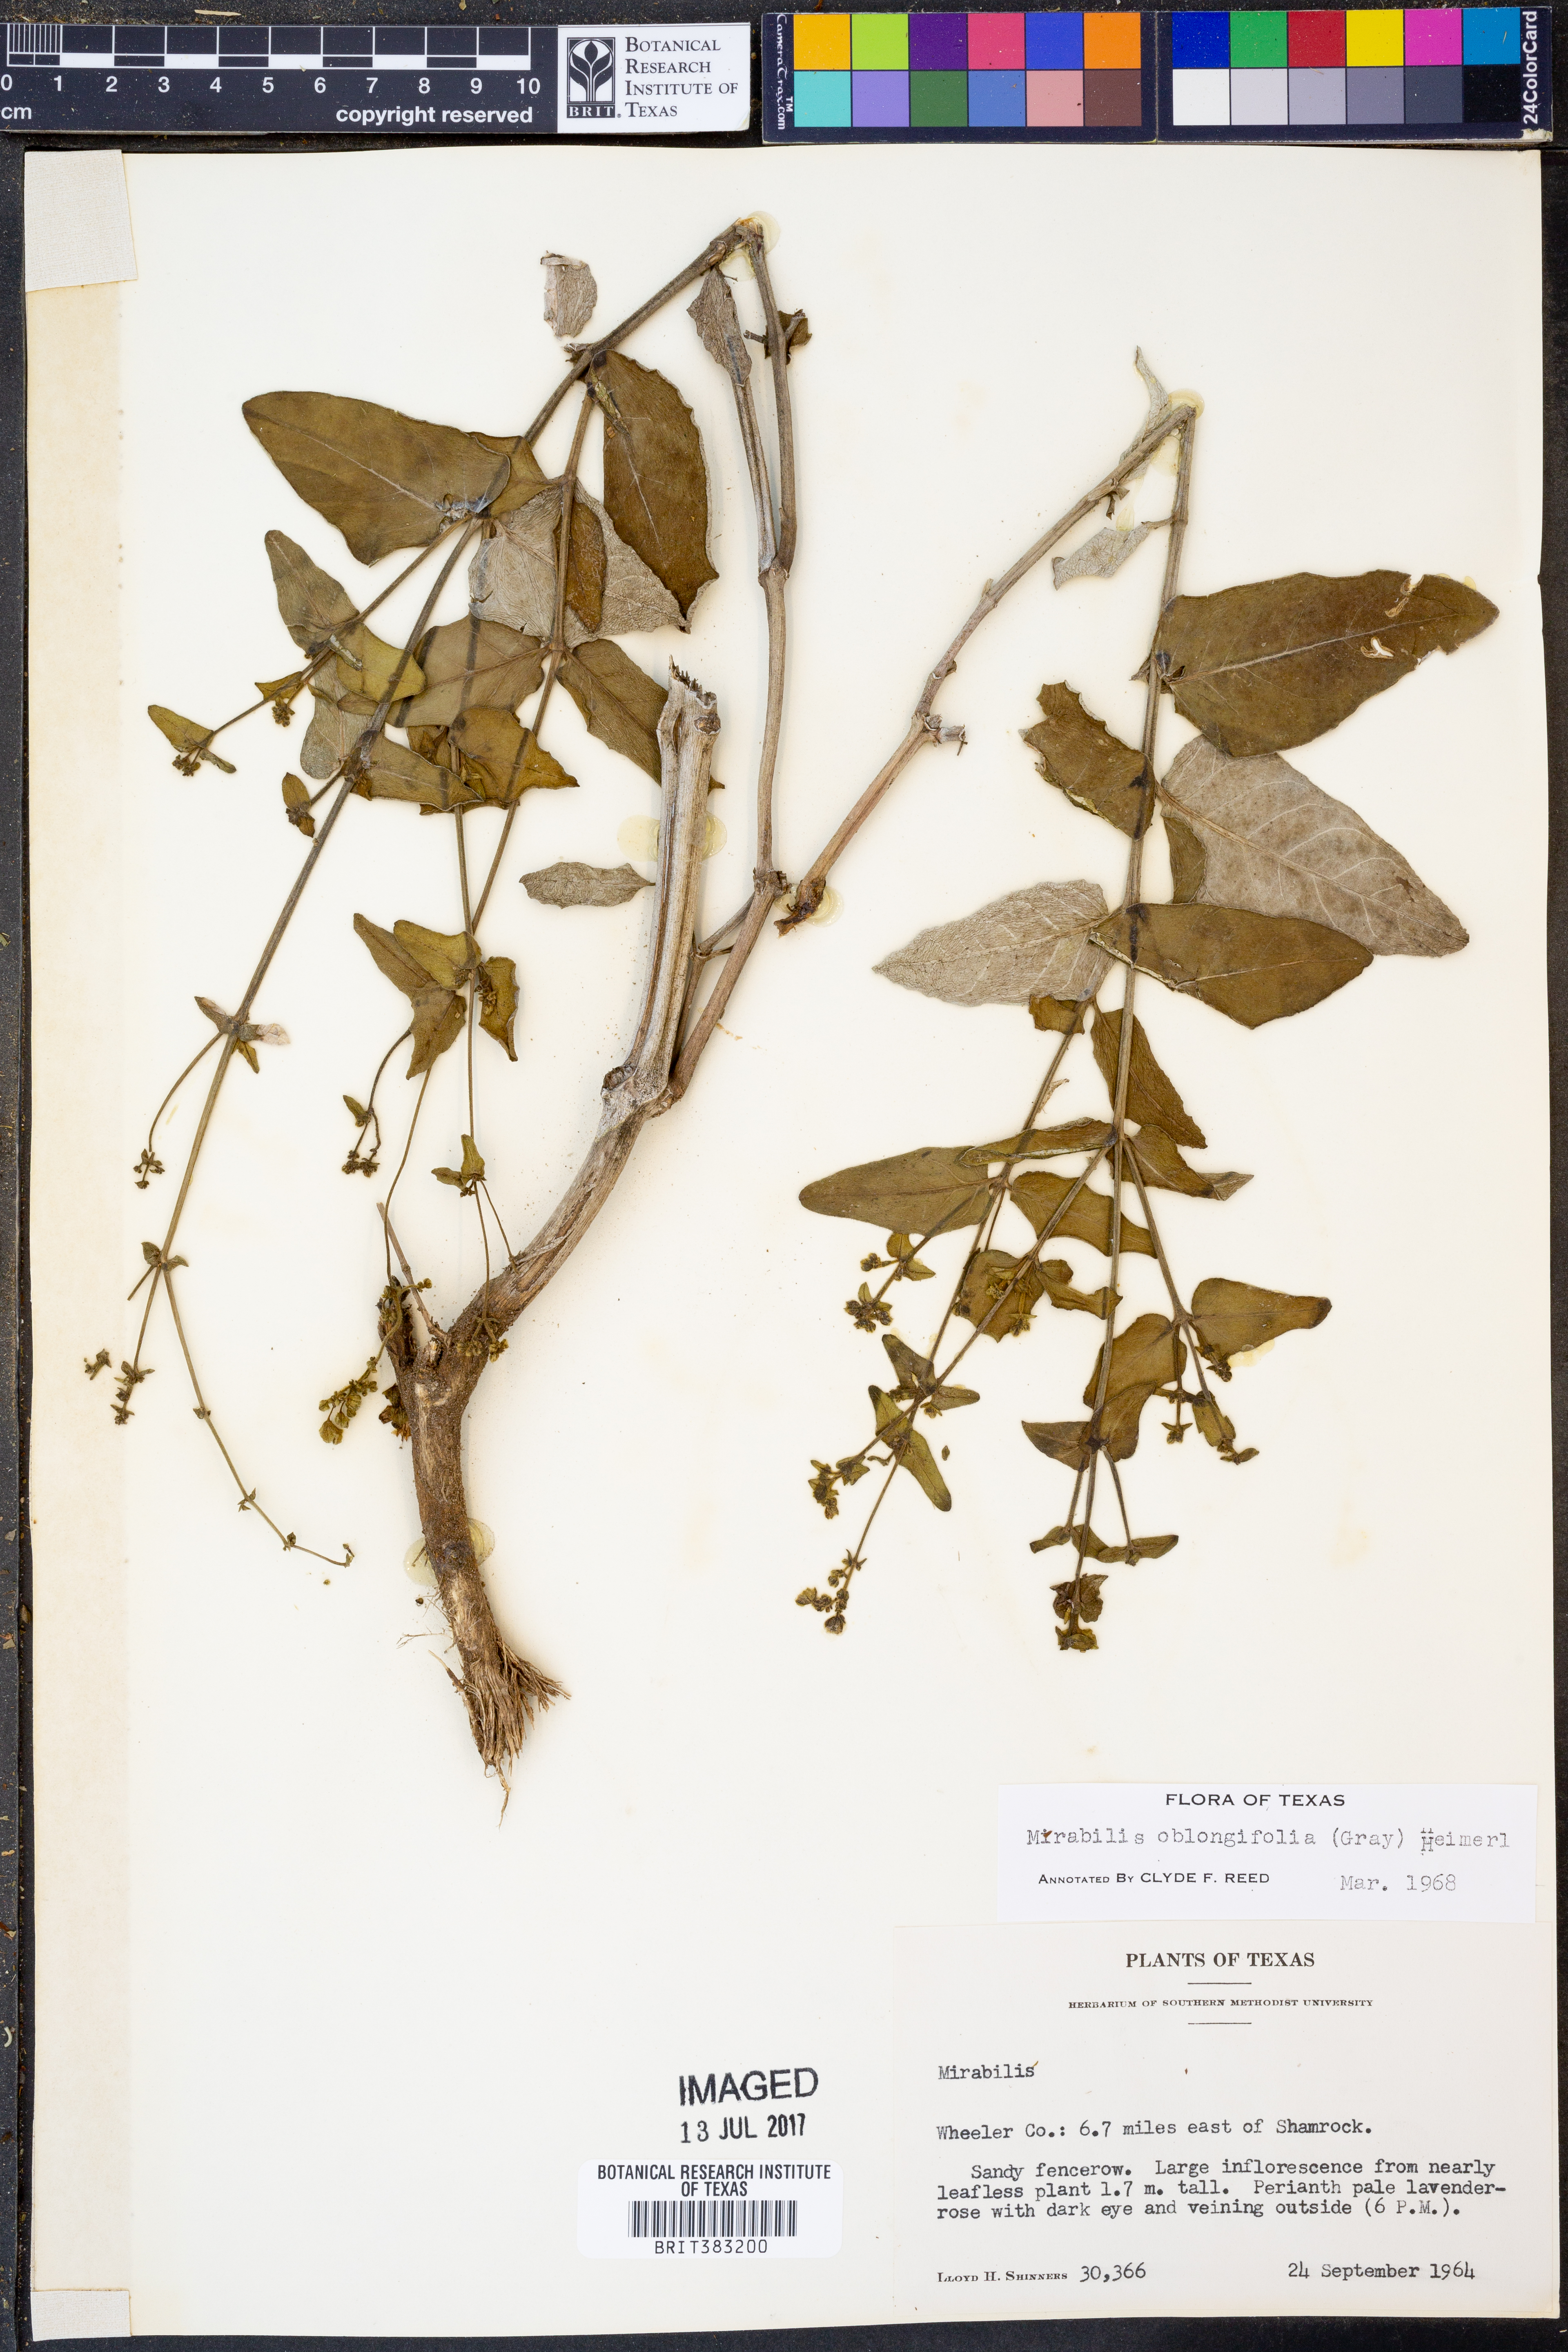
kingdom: Plantae
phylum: Tracheophyta
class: Magnoliopsida
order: Caryophyllales
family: Nyctaginaceae
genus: Mirabilis
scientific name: Mirabilis albida
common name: Hairy four-o'clock
